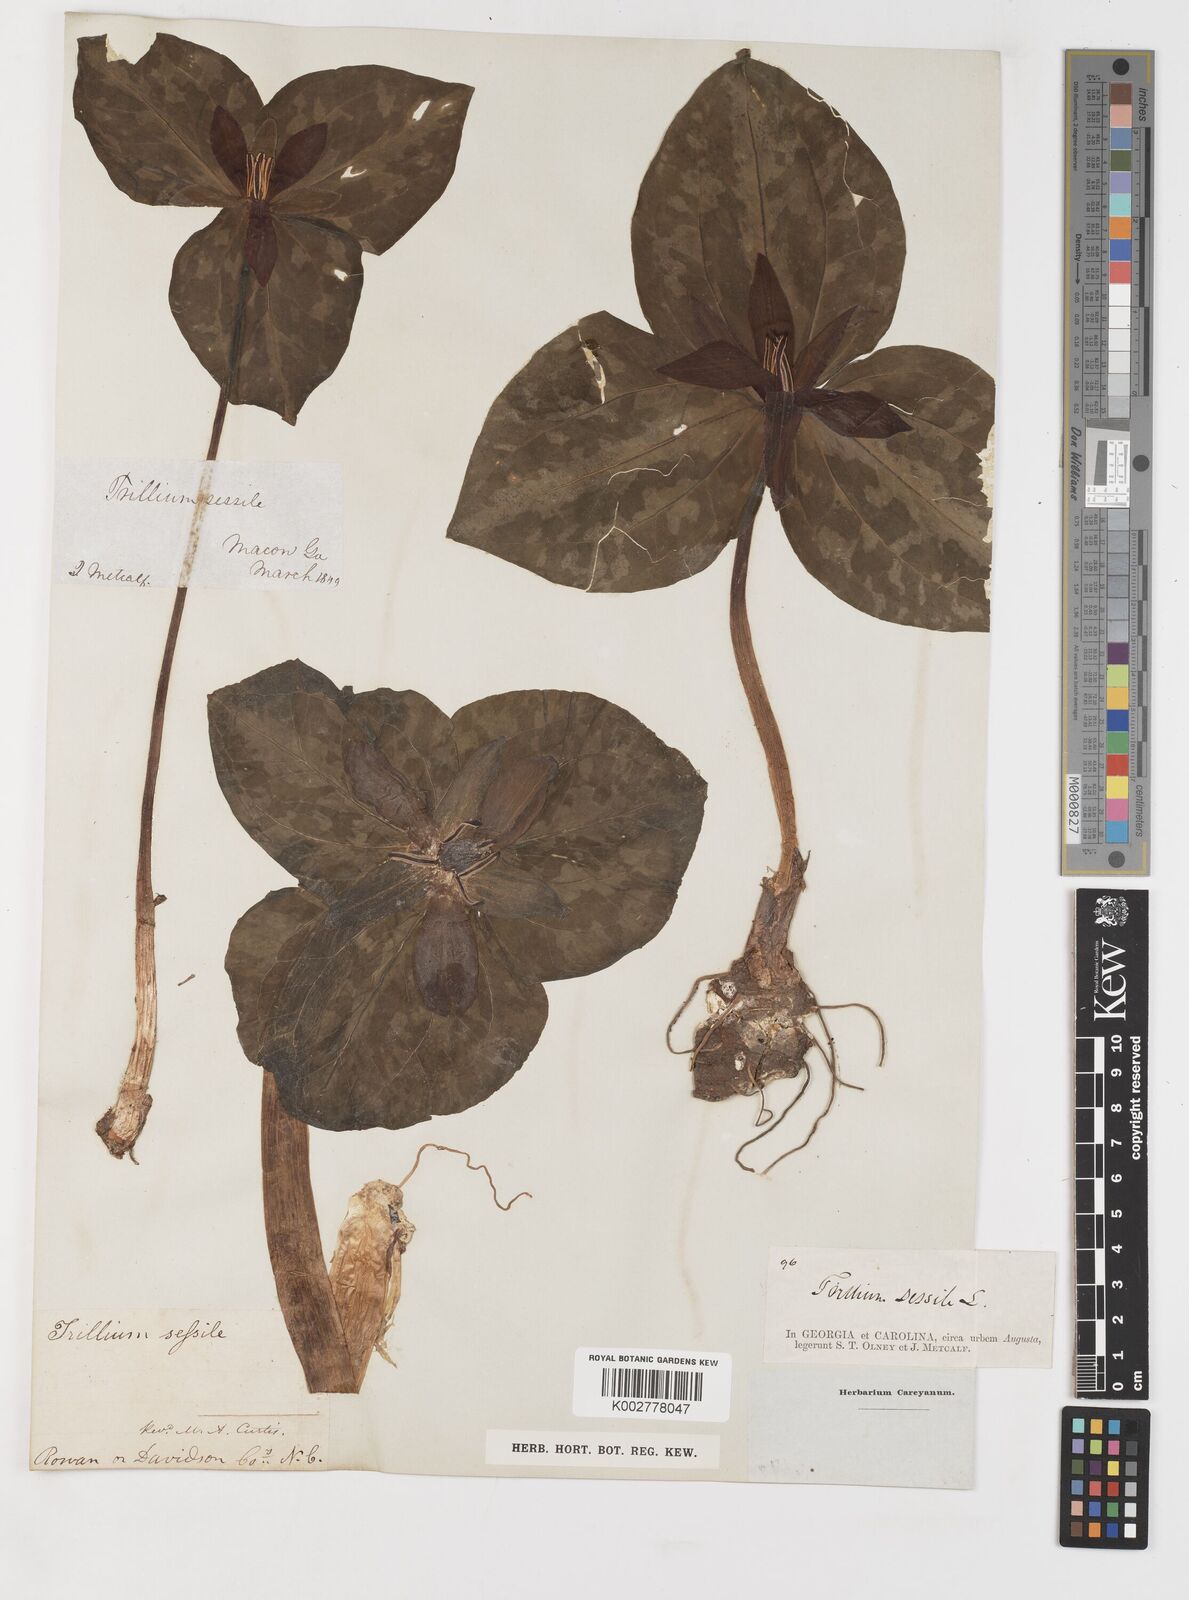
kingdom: Plantae
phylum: Tracheophyta
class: Liliopsida
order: Liliales
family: Melanthiaceae
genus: Trillium
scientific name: Trillium underwoodii
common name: Longbract wakerobin
